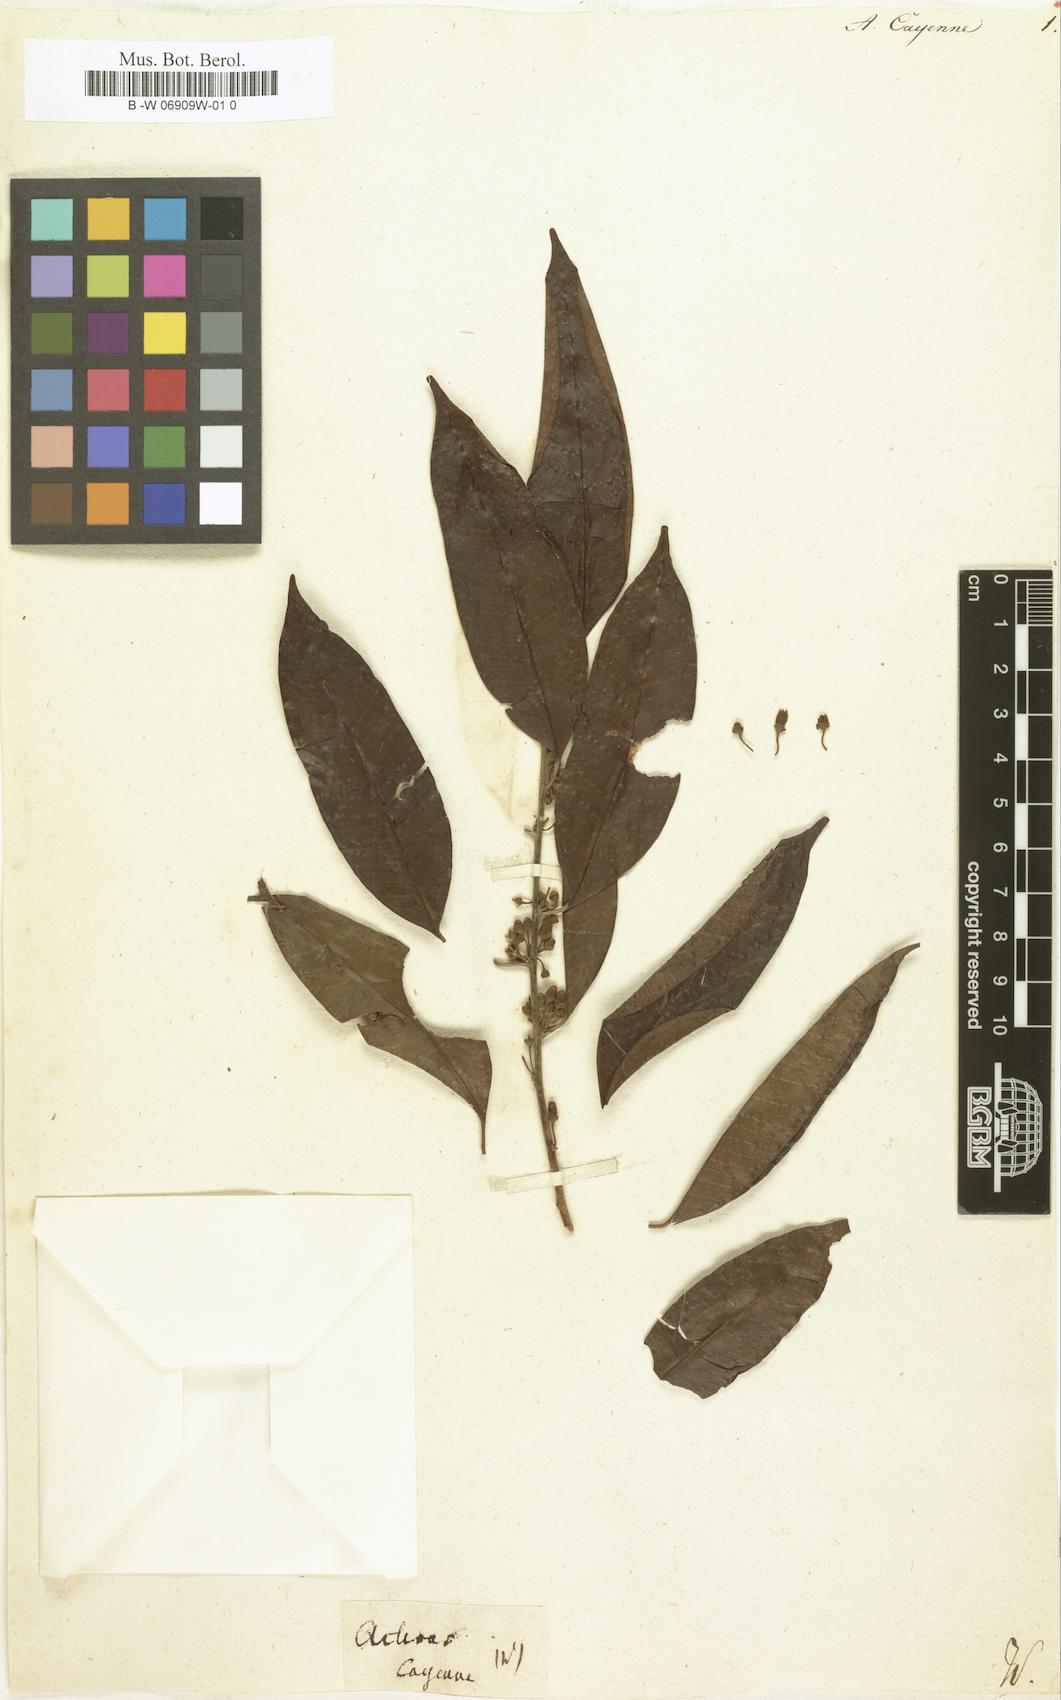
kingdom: Plantae
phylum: Tracheophyta
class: Magnoliopsida
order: Ericales
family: Sapotaceae
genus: Achras
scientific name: Achras
